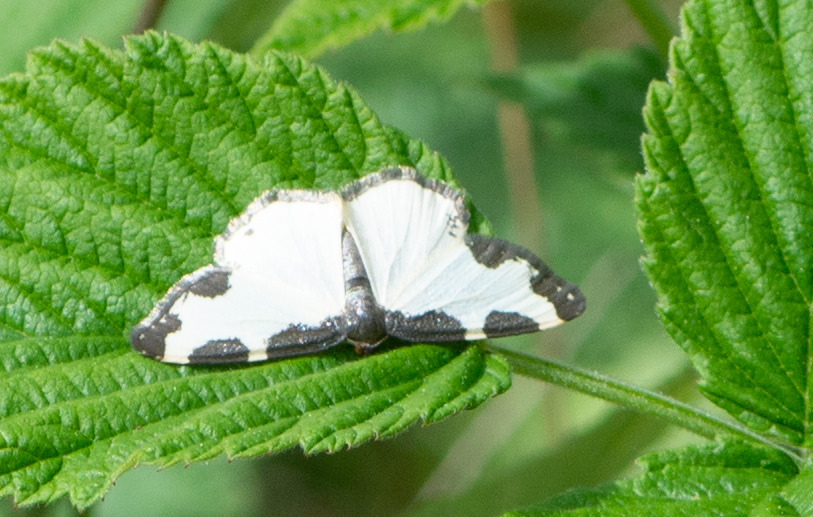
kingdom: Animalia
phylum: Arthropoda
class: Insecta
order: Lepidoptera
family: Geometridae
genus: Lomaspilis
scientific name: Lomaspilis marginata
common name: Sortrandet måler
